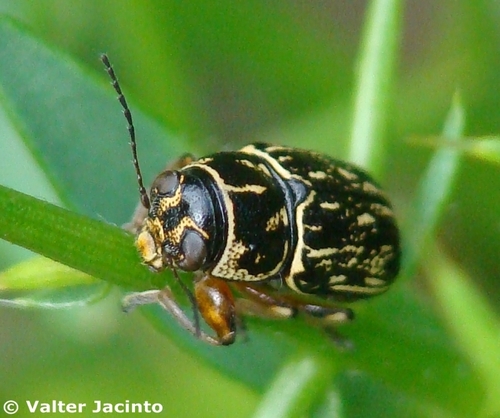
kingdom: Animalia
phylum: Arthropoda
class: Insecta
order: Coleoptera
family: Chrysomelidae
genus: Pachybrachis
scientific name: Pachybrachis
